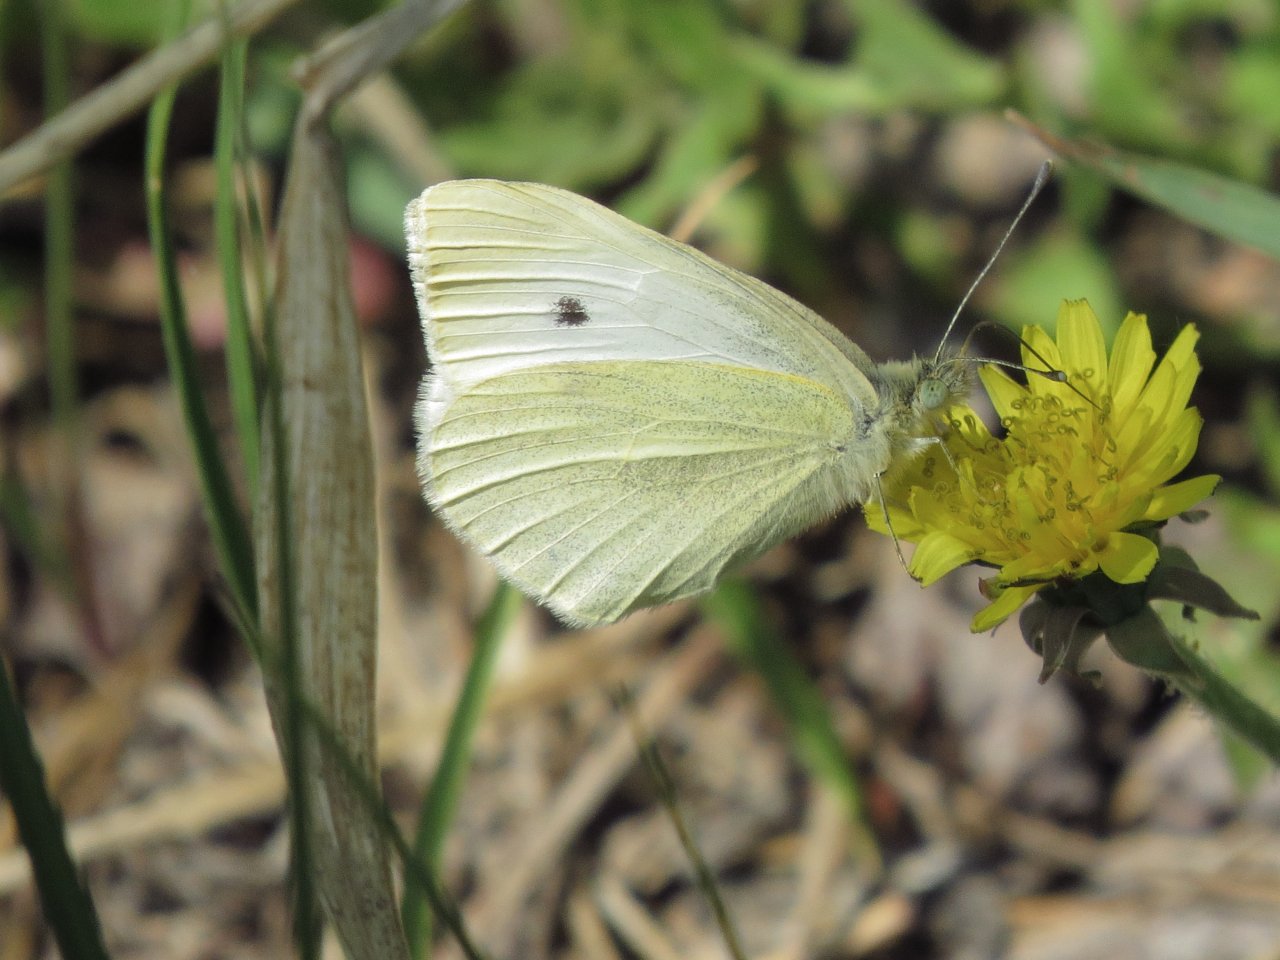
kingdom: Animalia
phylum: Arthropoda
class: Insecta
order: Lepidoptera
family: Pieridae
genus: Pieris
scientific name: Pieris rapae
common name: Cabbage White
